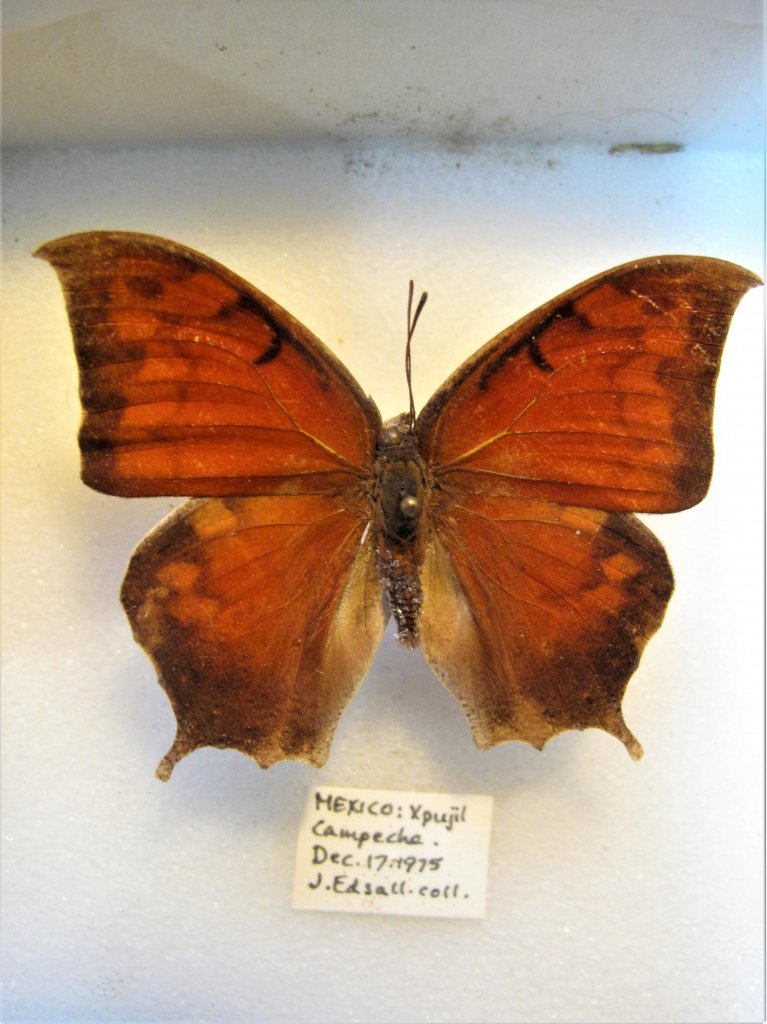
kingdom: Animalia
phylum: Arthropoda
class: Insecta
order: Lepidoptera
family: Nymphalidae
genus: Anaea
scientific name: Anaea aidea
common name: Tropical Leafwing
